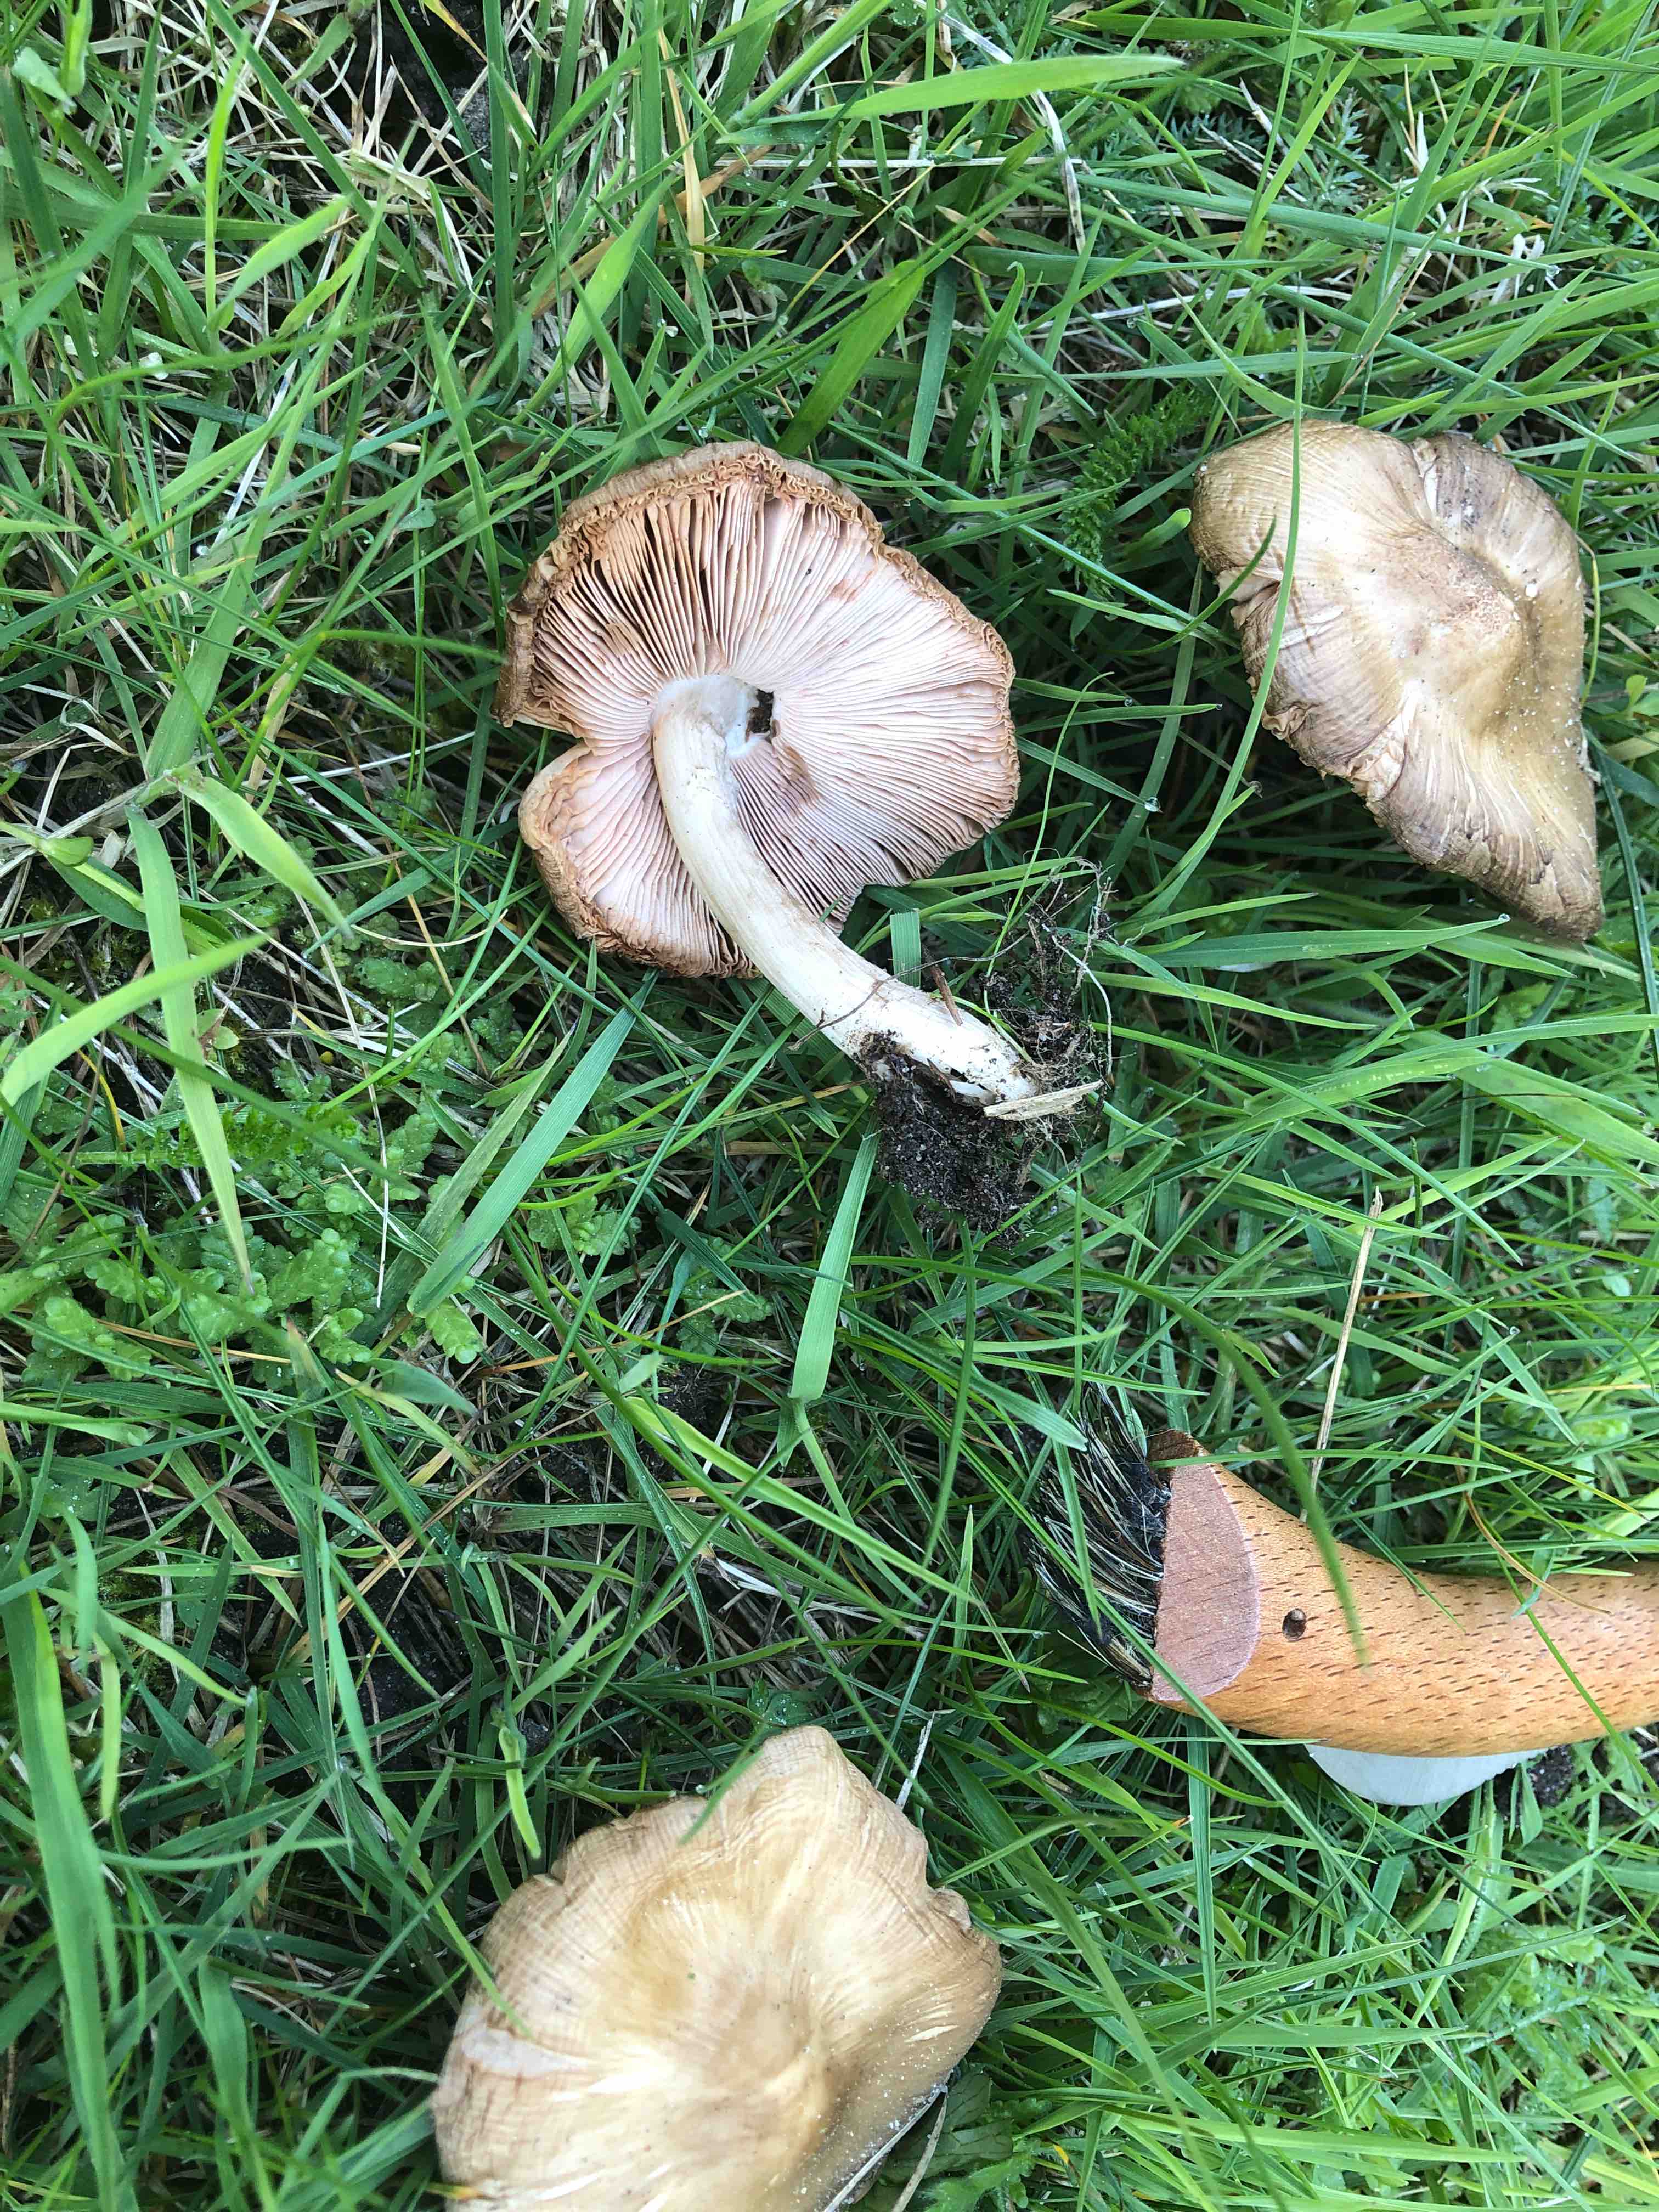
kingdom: Fungi
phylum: Basidiomycota
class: Agaricomycetes
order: Agaricales
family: Pluteaceae
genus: Pluteus
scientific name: Pluteus
